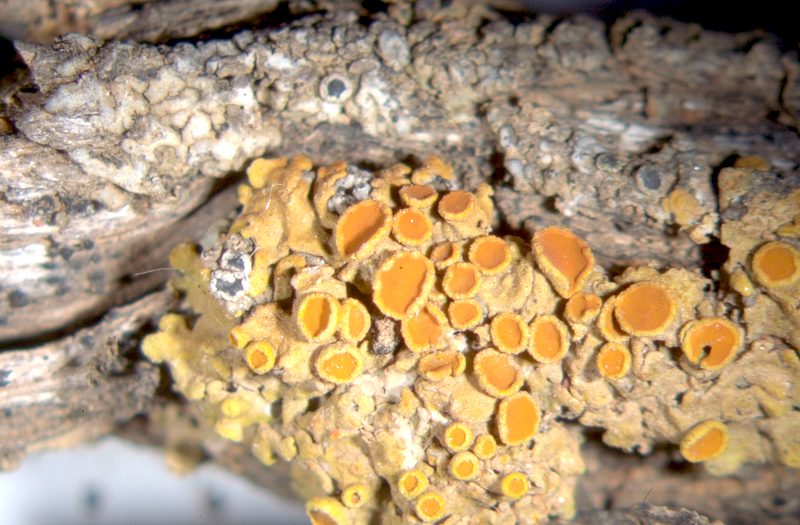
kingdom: Fungi
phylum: Ascomycota
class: Lecanoromycetes
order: Caliciales
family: Caliciaceae
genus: Calicium
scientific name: Calicium
